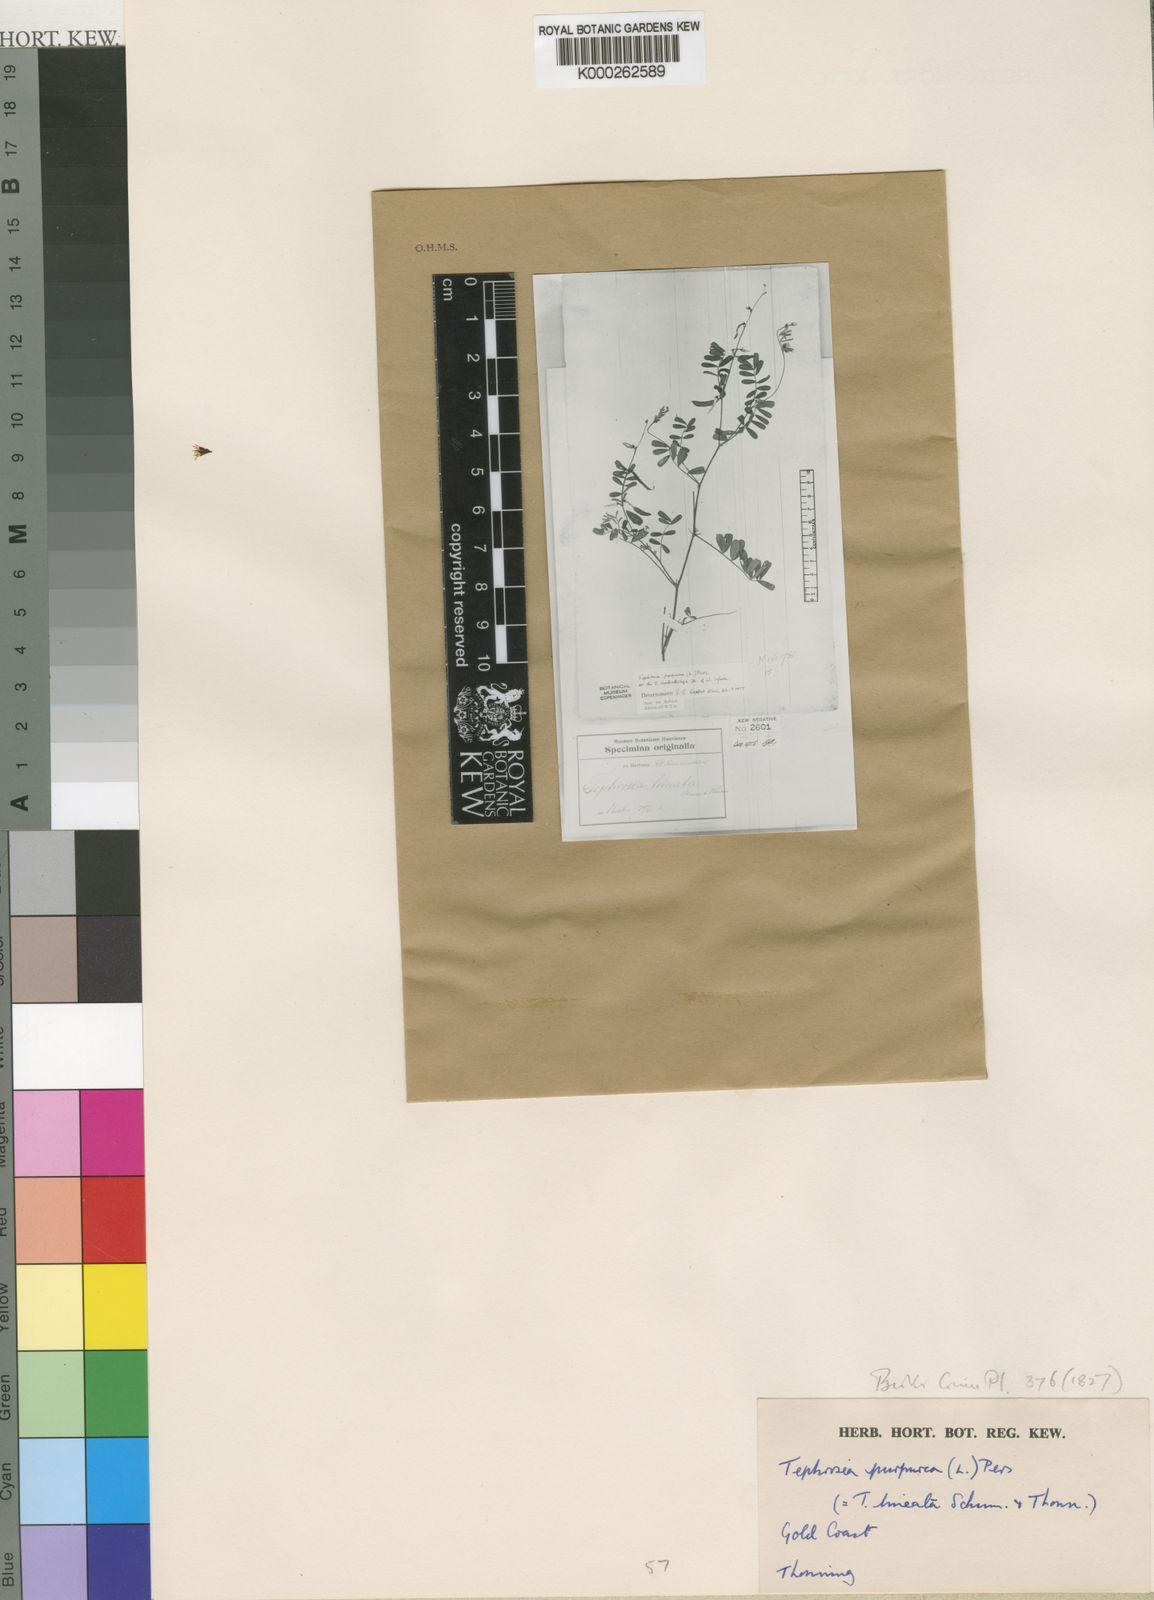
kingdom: Plantae
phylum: Tracheophyta
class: Magnoliopsida
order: Fabales
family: Fabaceae
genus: Tephrosia
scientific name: Tephrosia purpurea
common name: Fishpoison
